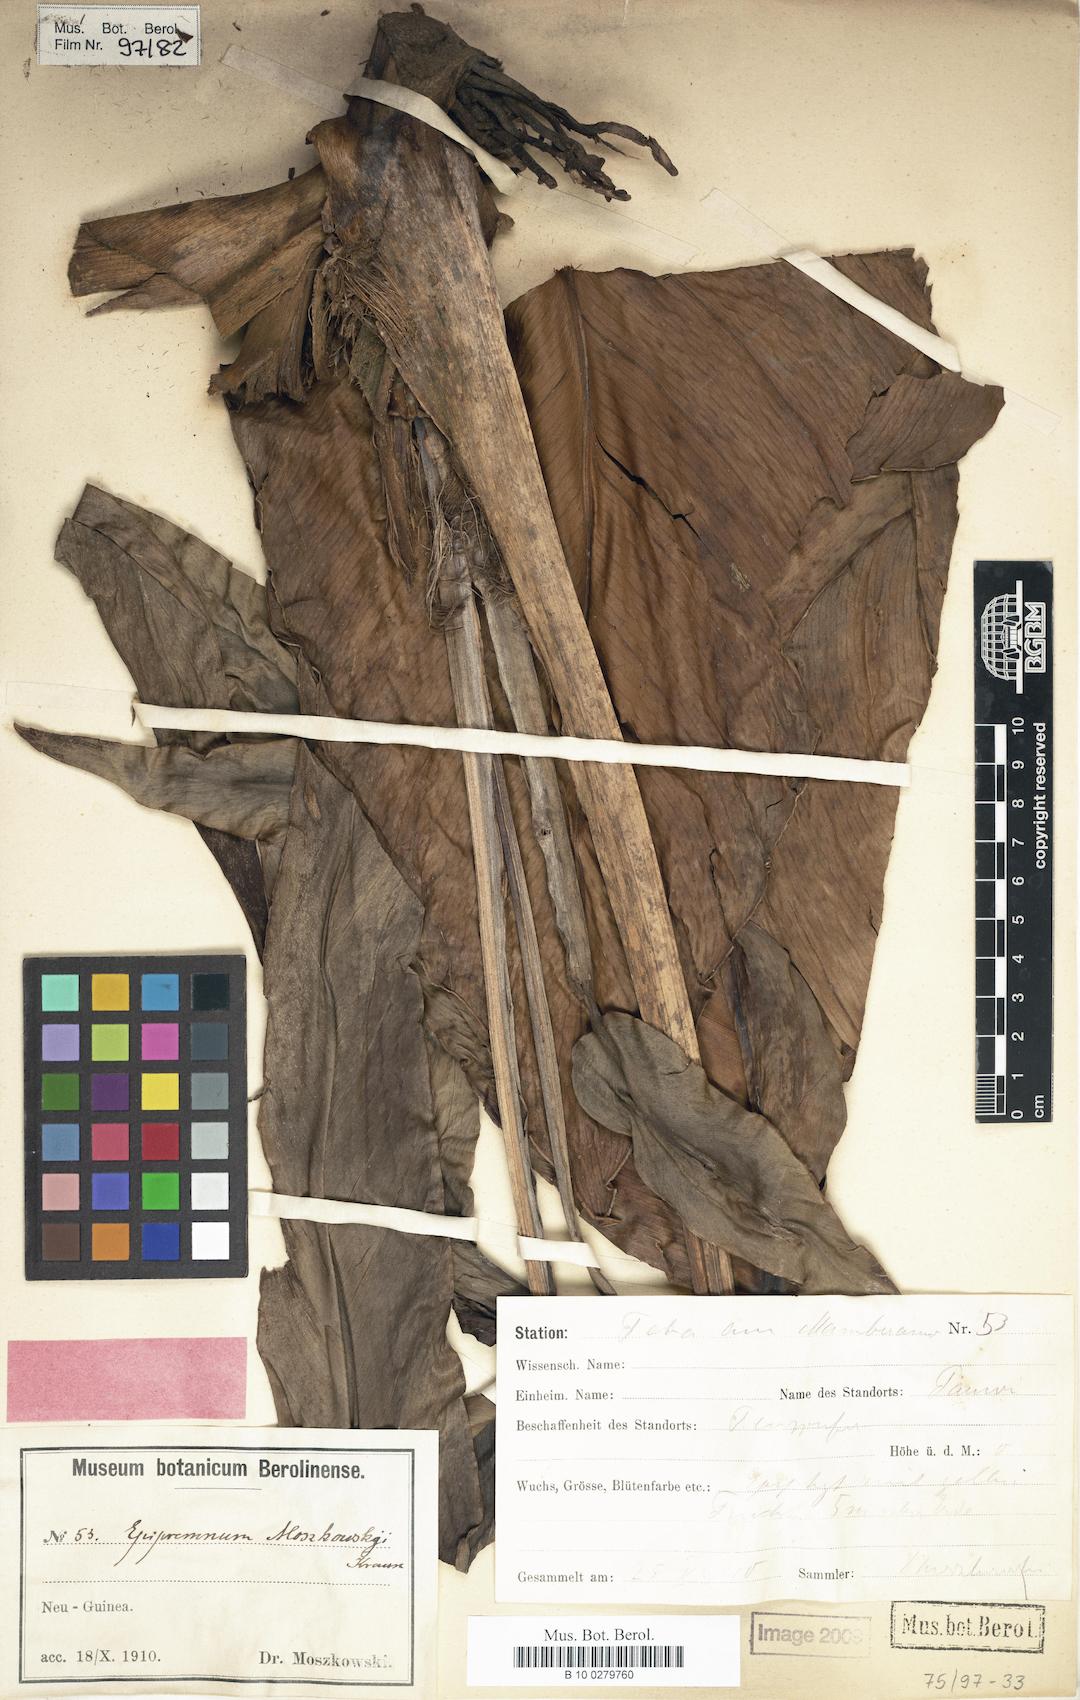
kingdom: Plantae
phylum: Tracheophyta
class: Liliopsida
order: Alismatales
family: Araceae
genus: Epipremnum
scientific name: Epipremnum moszkowskii
